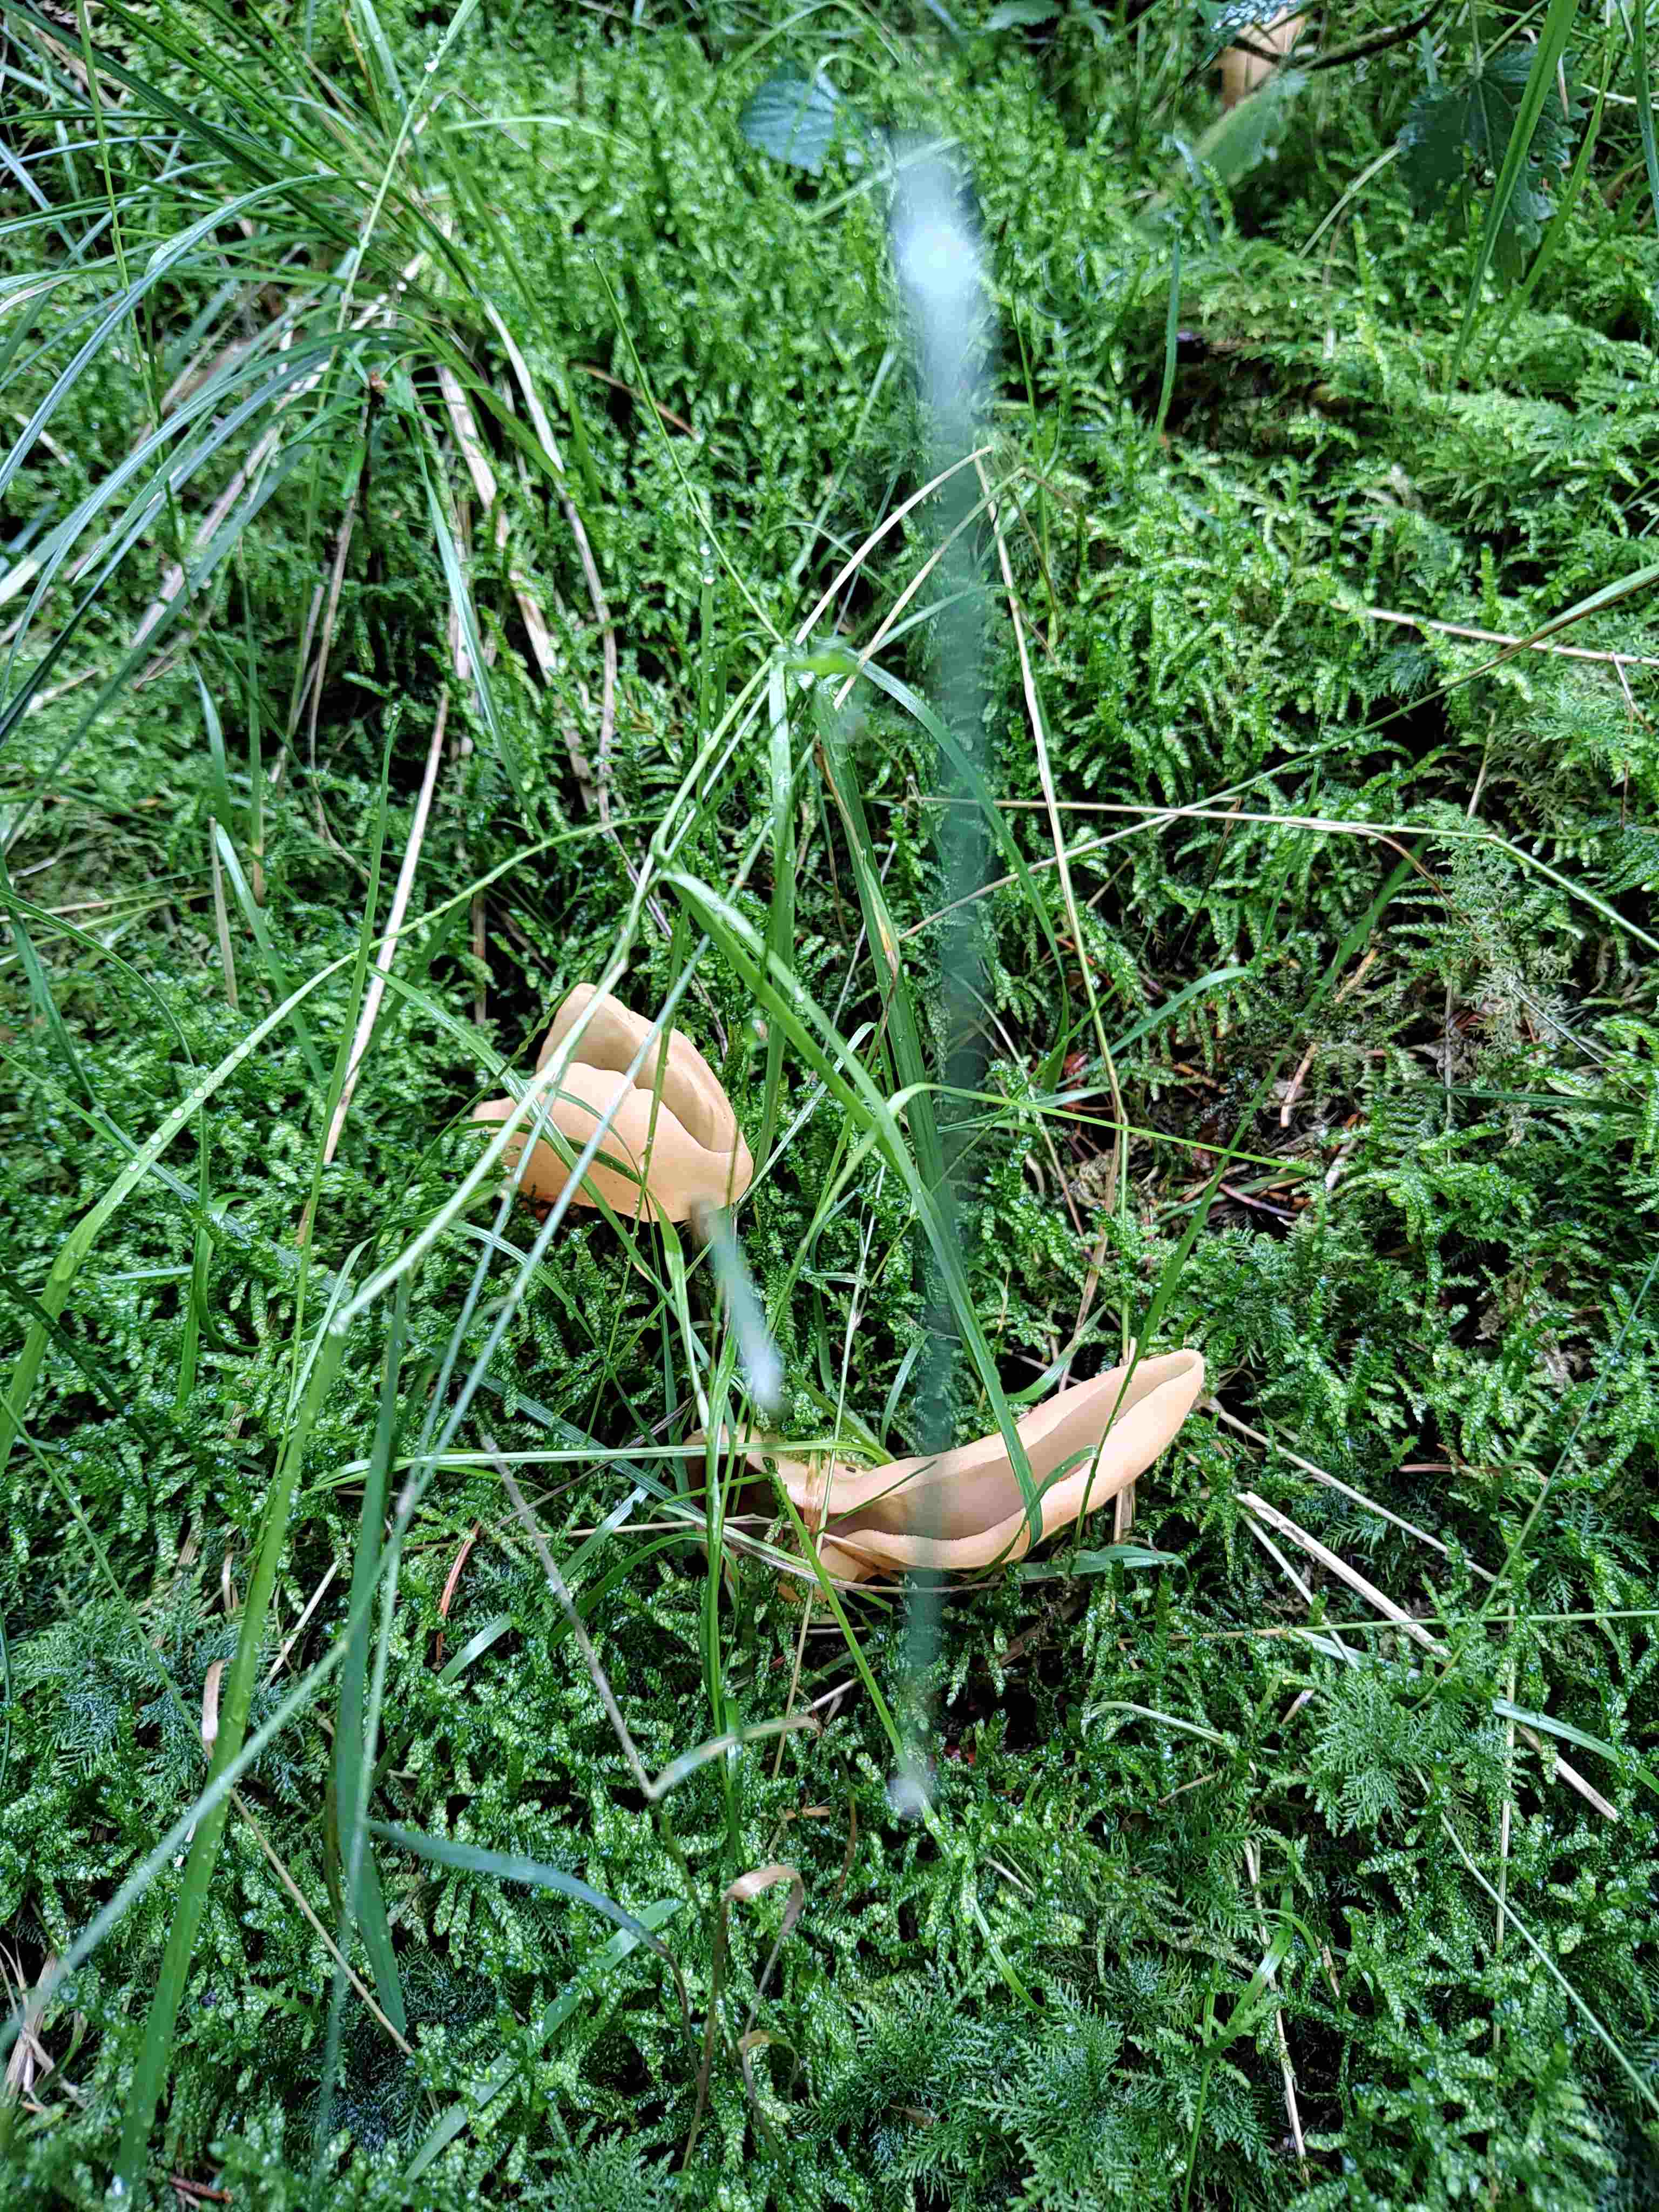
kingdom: Fungi
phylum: Ascomycota
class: Pezizomycetes
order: Pezizales
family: Otideaceae
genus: Otidea
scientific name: Otidea
